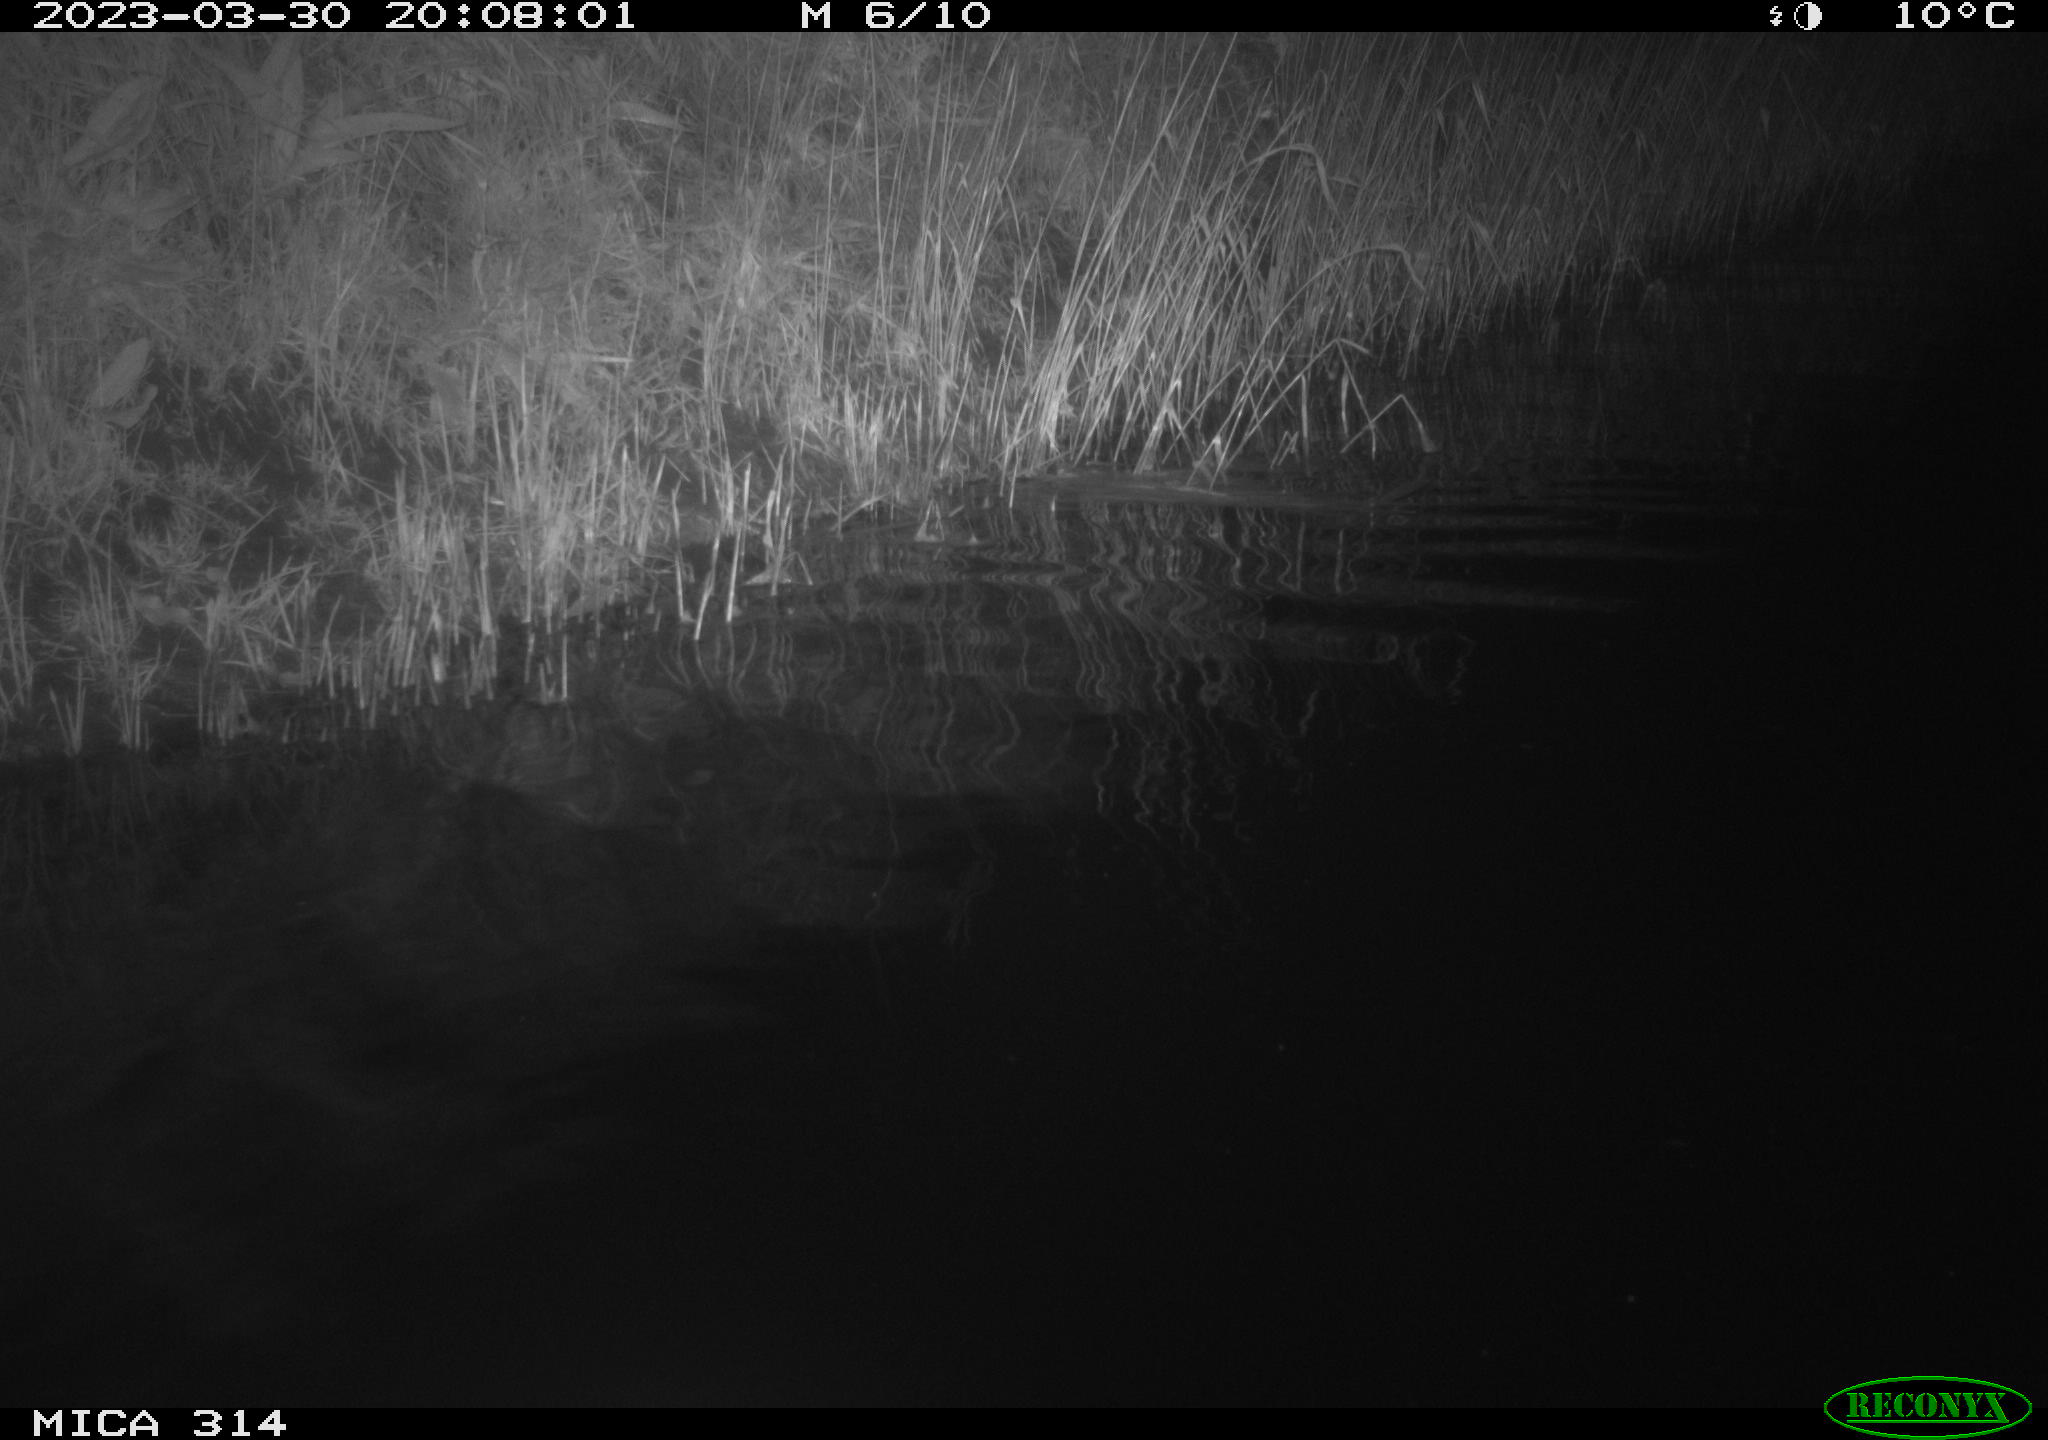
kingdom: Animalia
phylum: Chordata
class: Aves
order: Anseriformes
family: Anatidae
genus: Anas
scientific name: Anas
